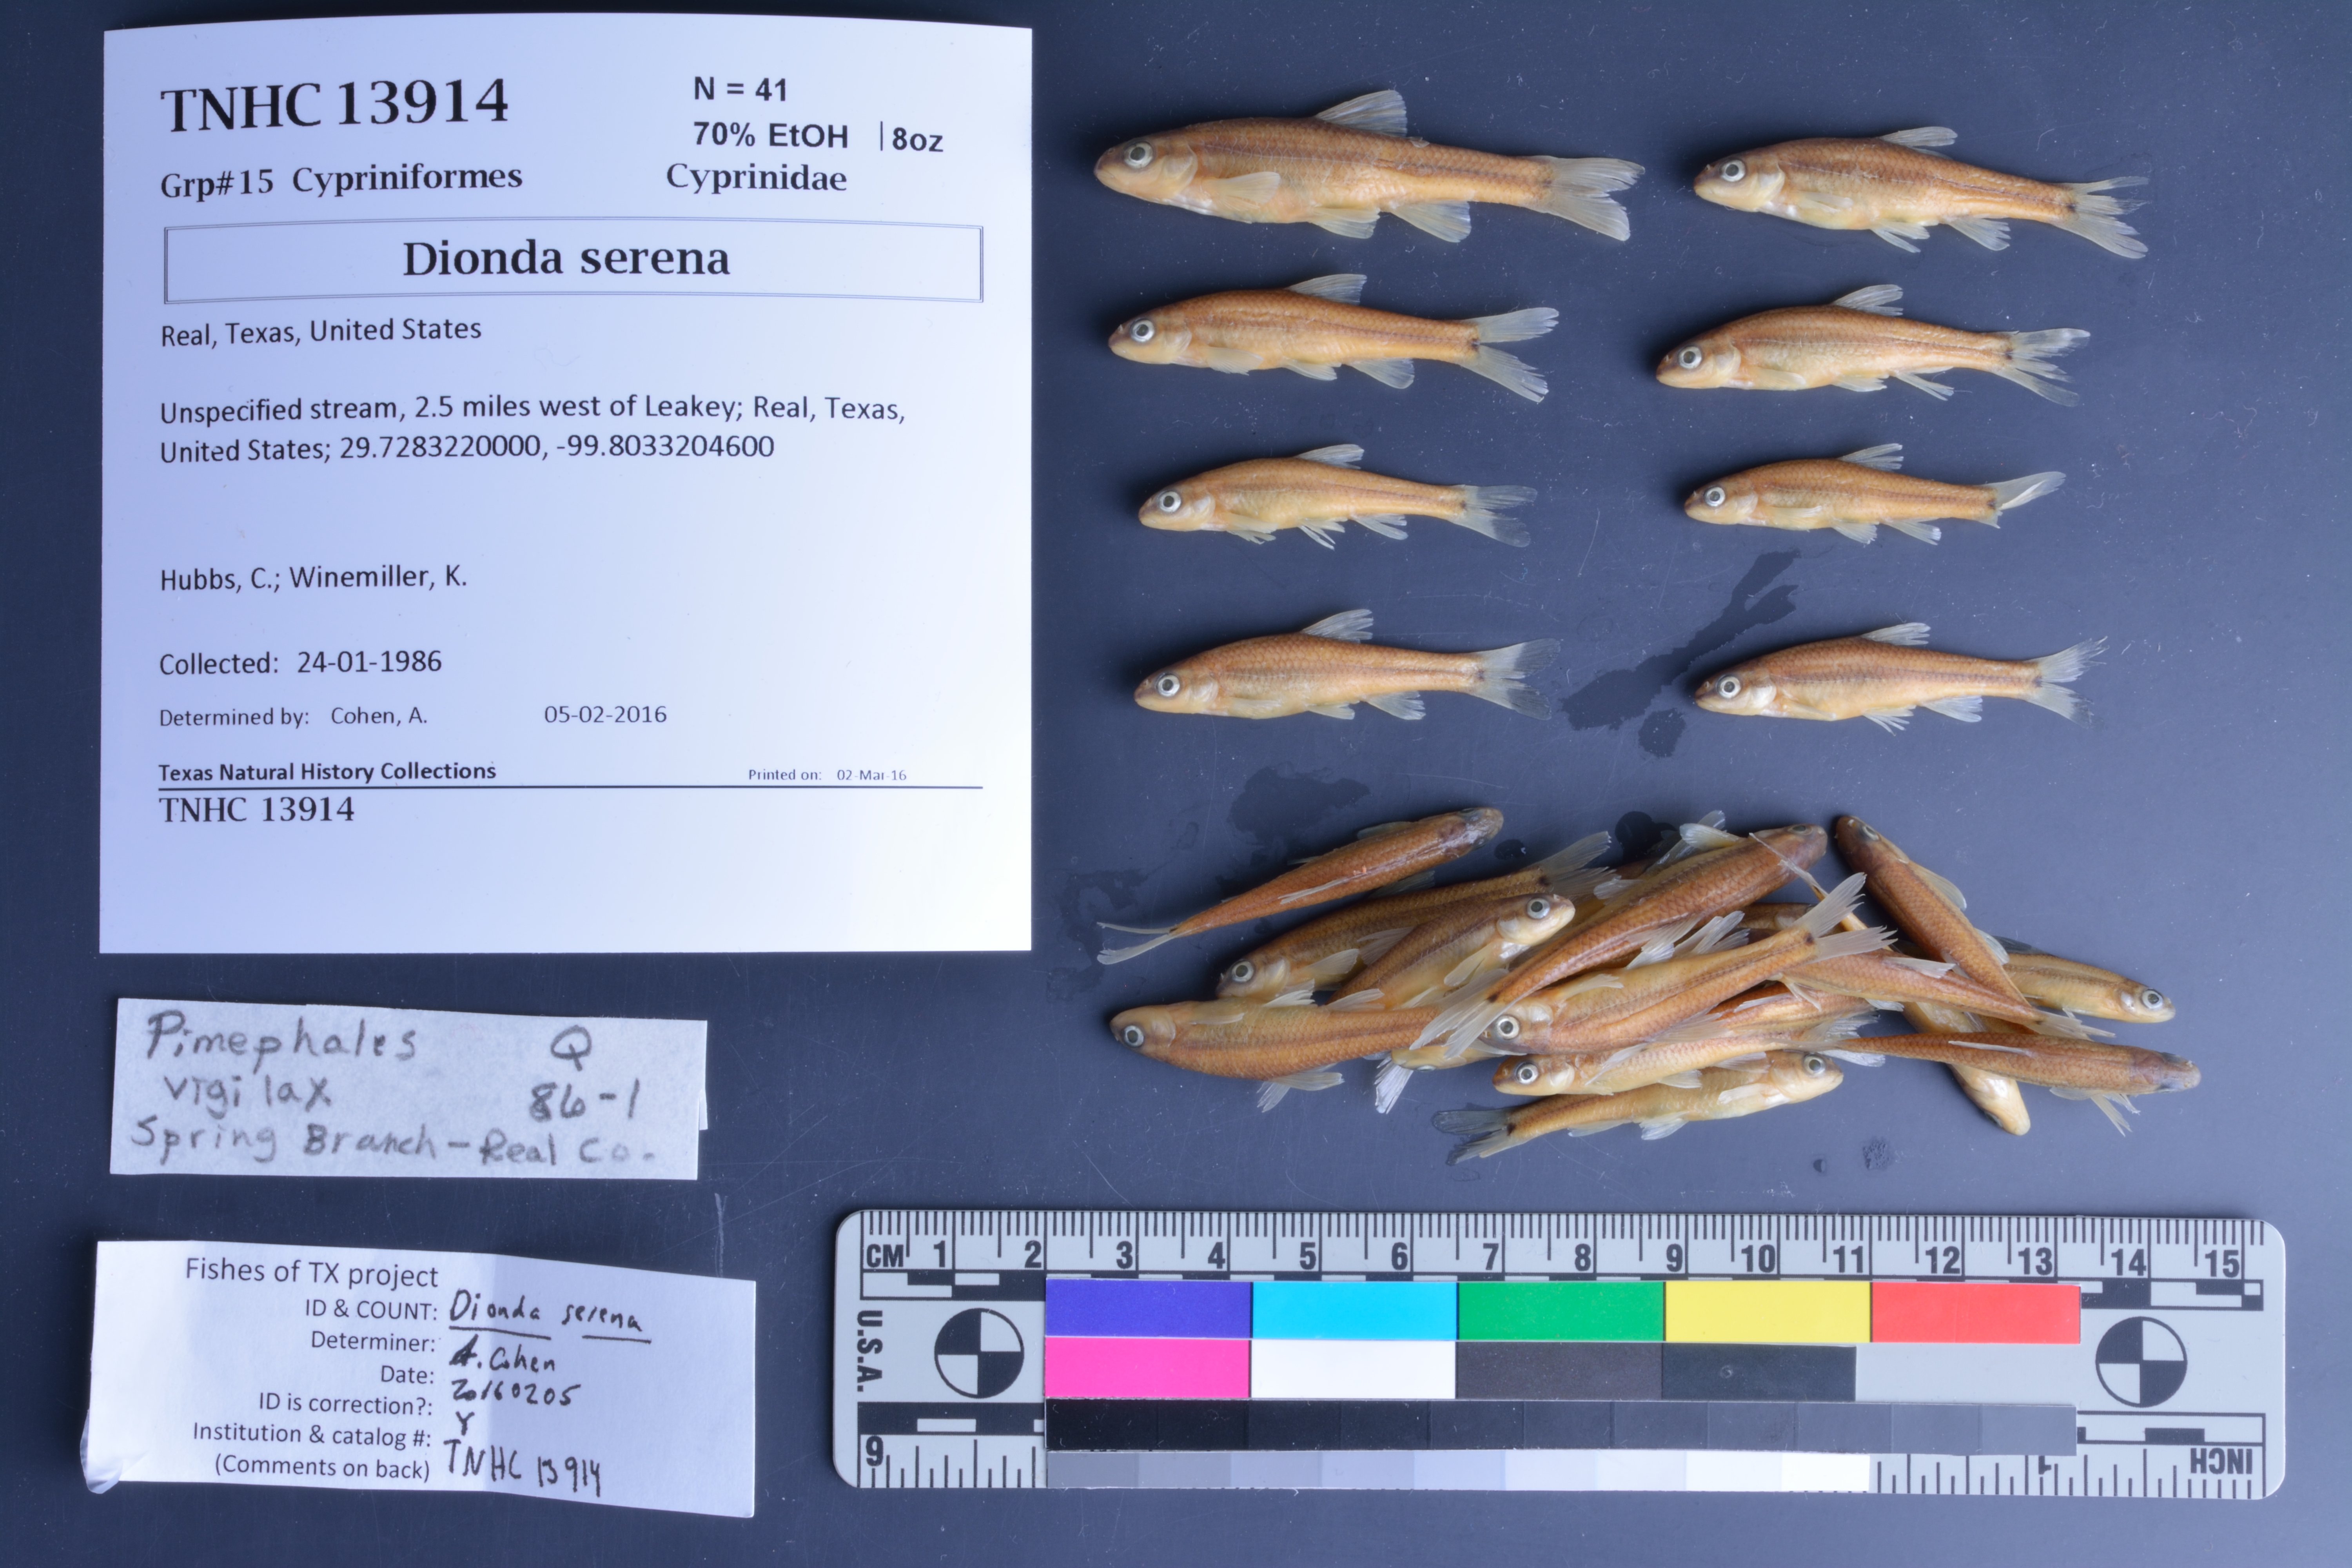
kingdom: Animalia
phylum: Chordata
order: Cypriniformes
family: Cyprinidae
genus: Dionda
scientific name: Dionda serena
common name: Nueces roundnose minnow
